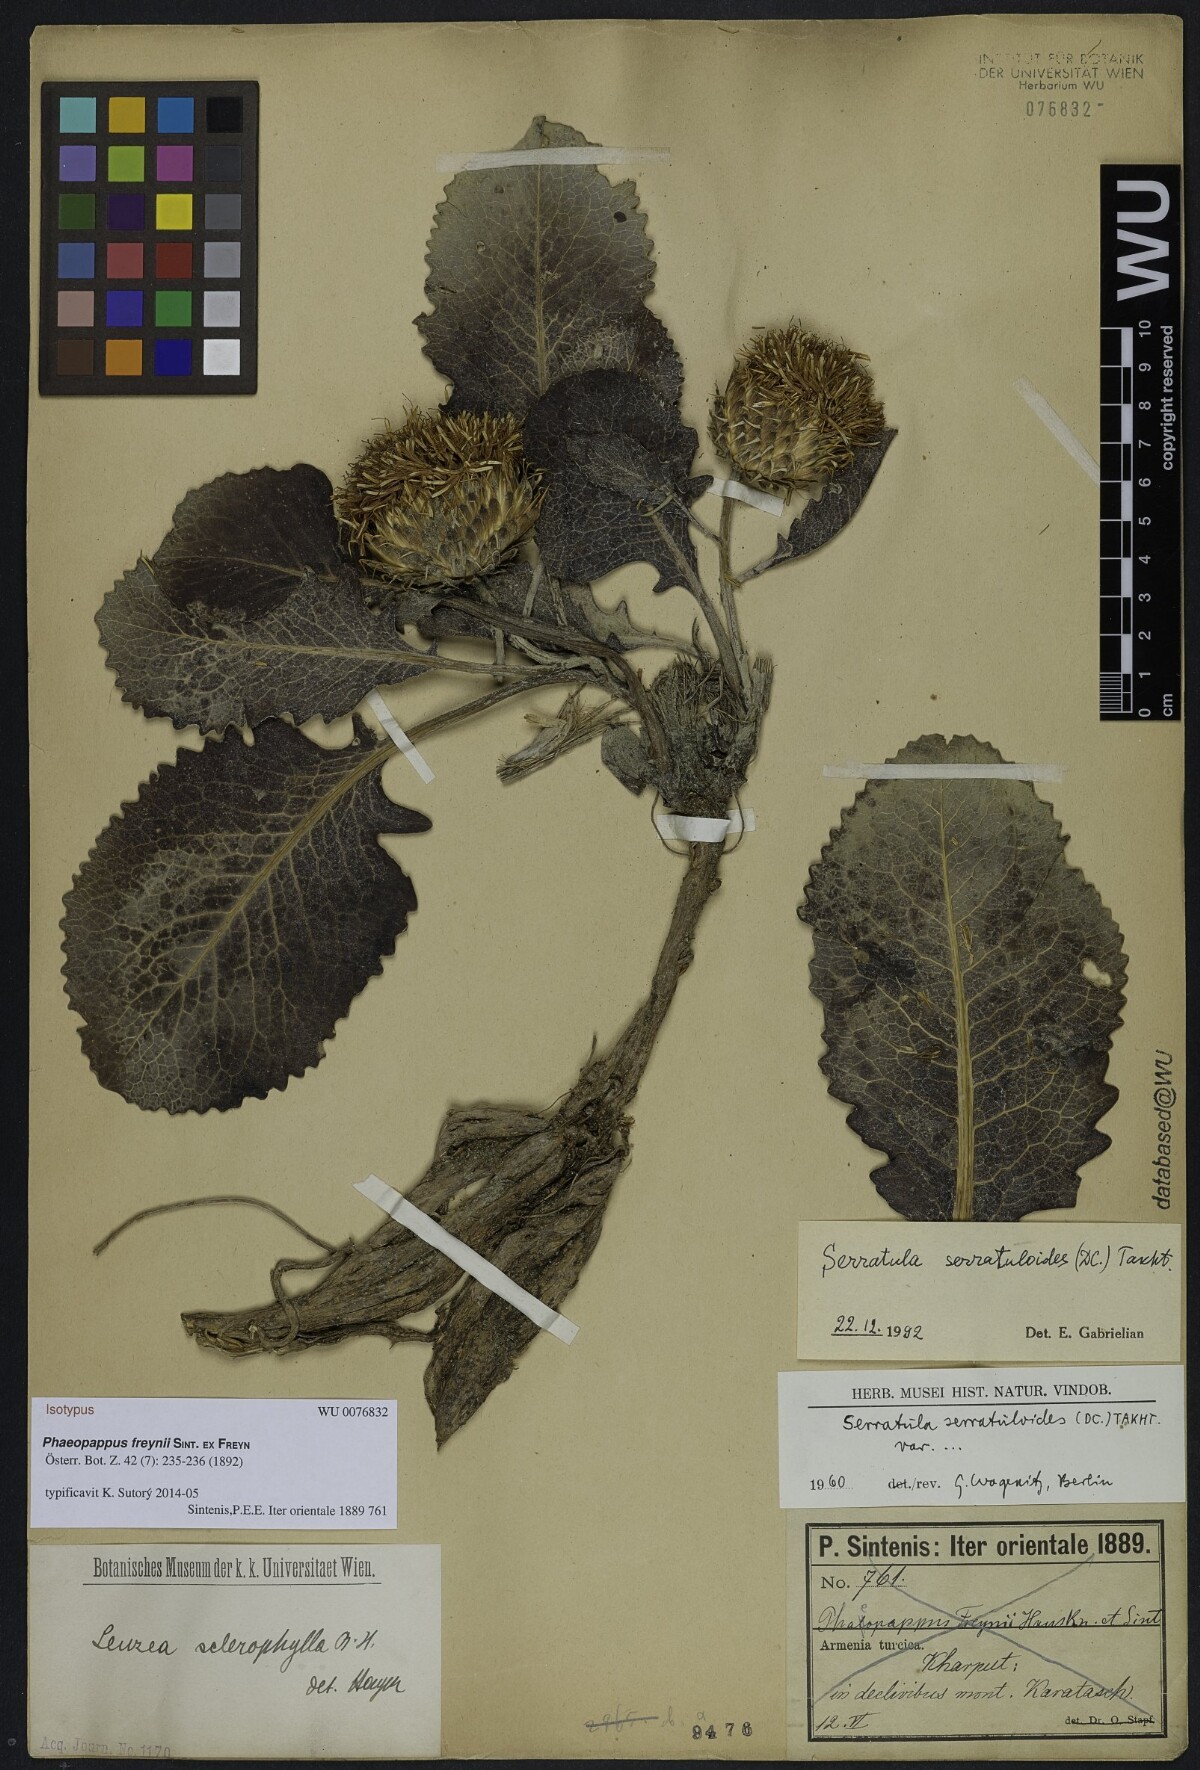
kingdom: Plantae
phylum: Tracheophyta
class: Magnoliopsida
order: Asterales
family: Asteraceae
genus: Klasea
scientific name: Klasea serratuloides
